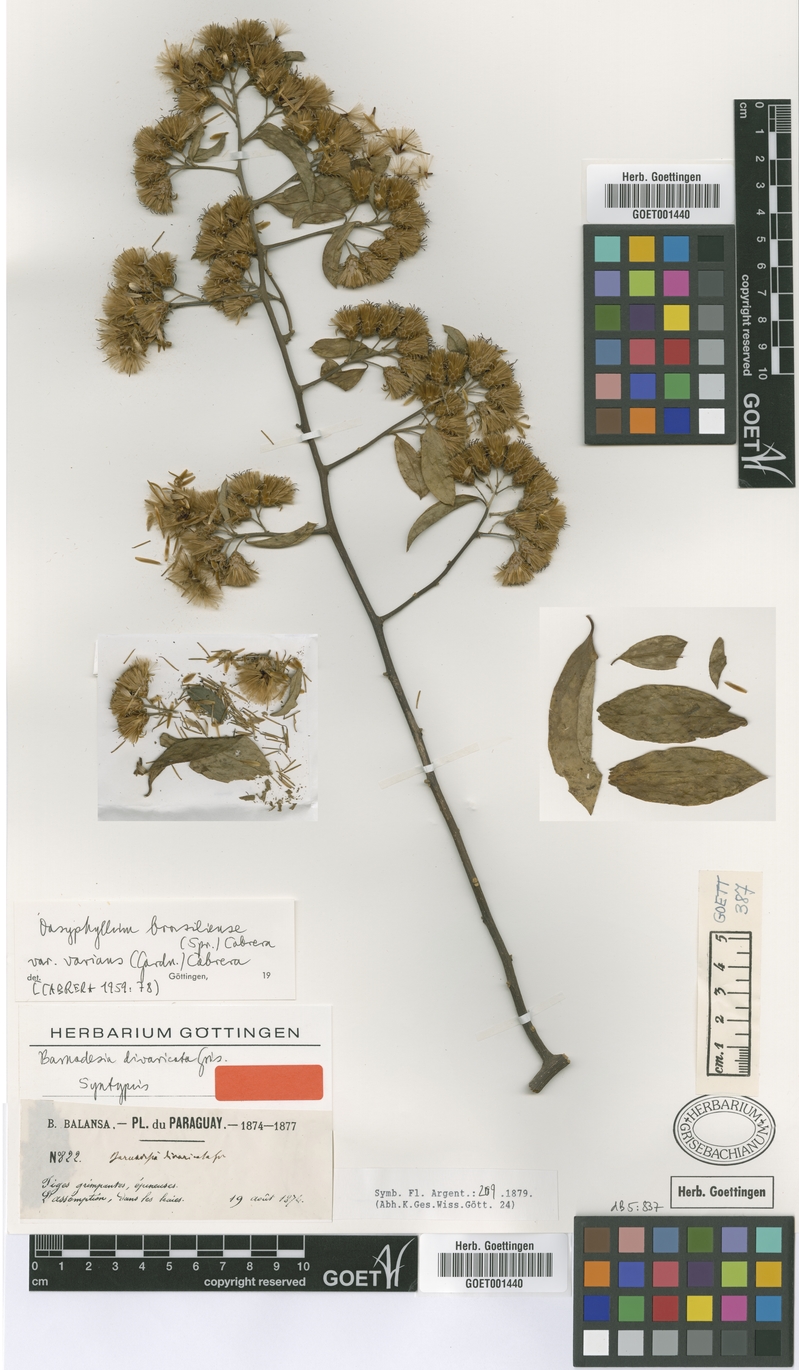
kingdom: Plantae
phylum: Tracheophyta
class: Magnoliopsida
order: Asterales
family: Asteraceae
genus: Dasyphyllum
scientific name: Dasyphyllum varians
